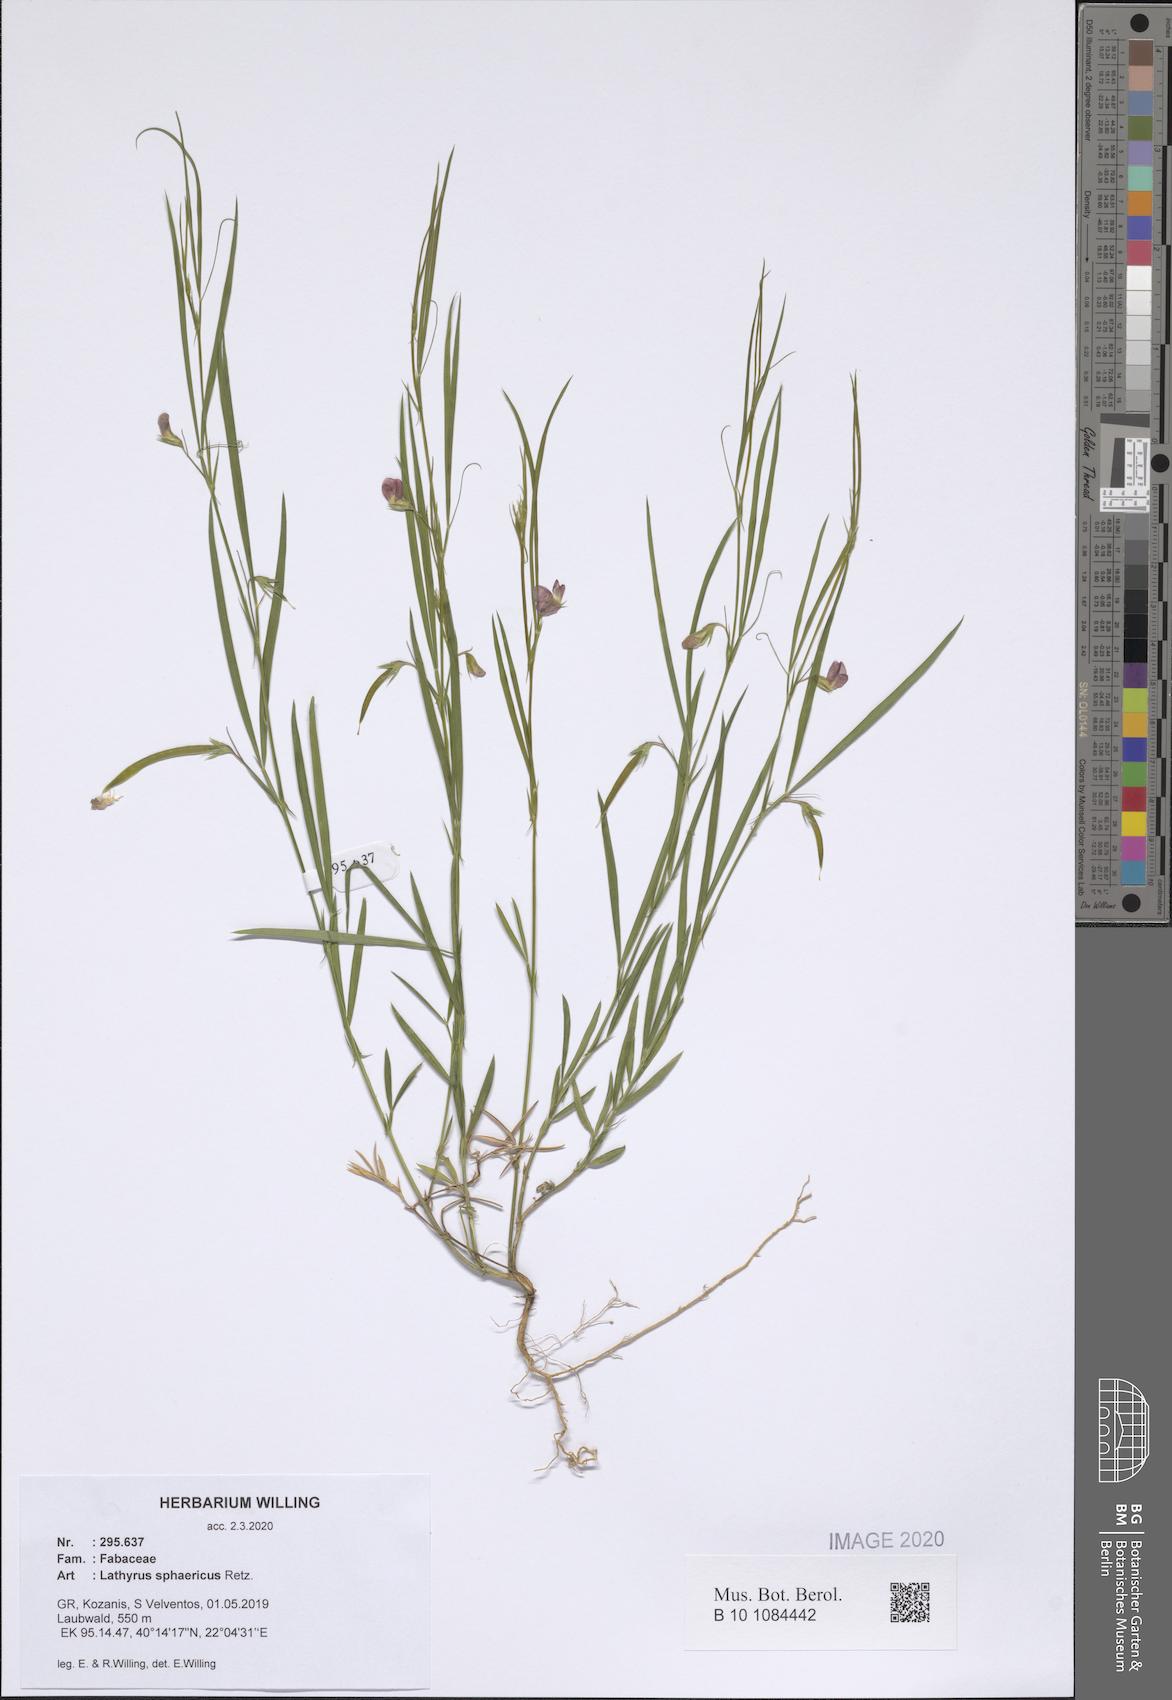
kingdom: Plantae
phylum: Tracheophyta
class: Magnoliopsida
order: Fabales
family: Fabaceae
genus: Lathyrus
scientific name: Lathyrus sphaericus
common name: Grass pea
